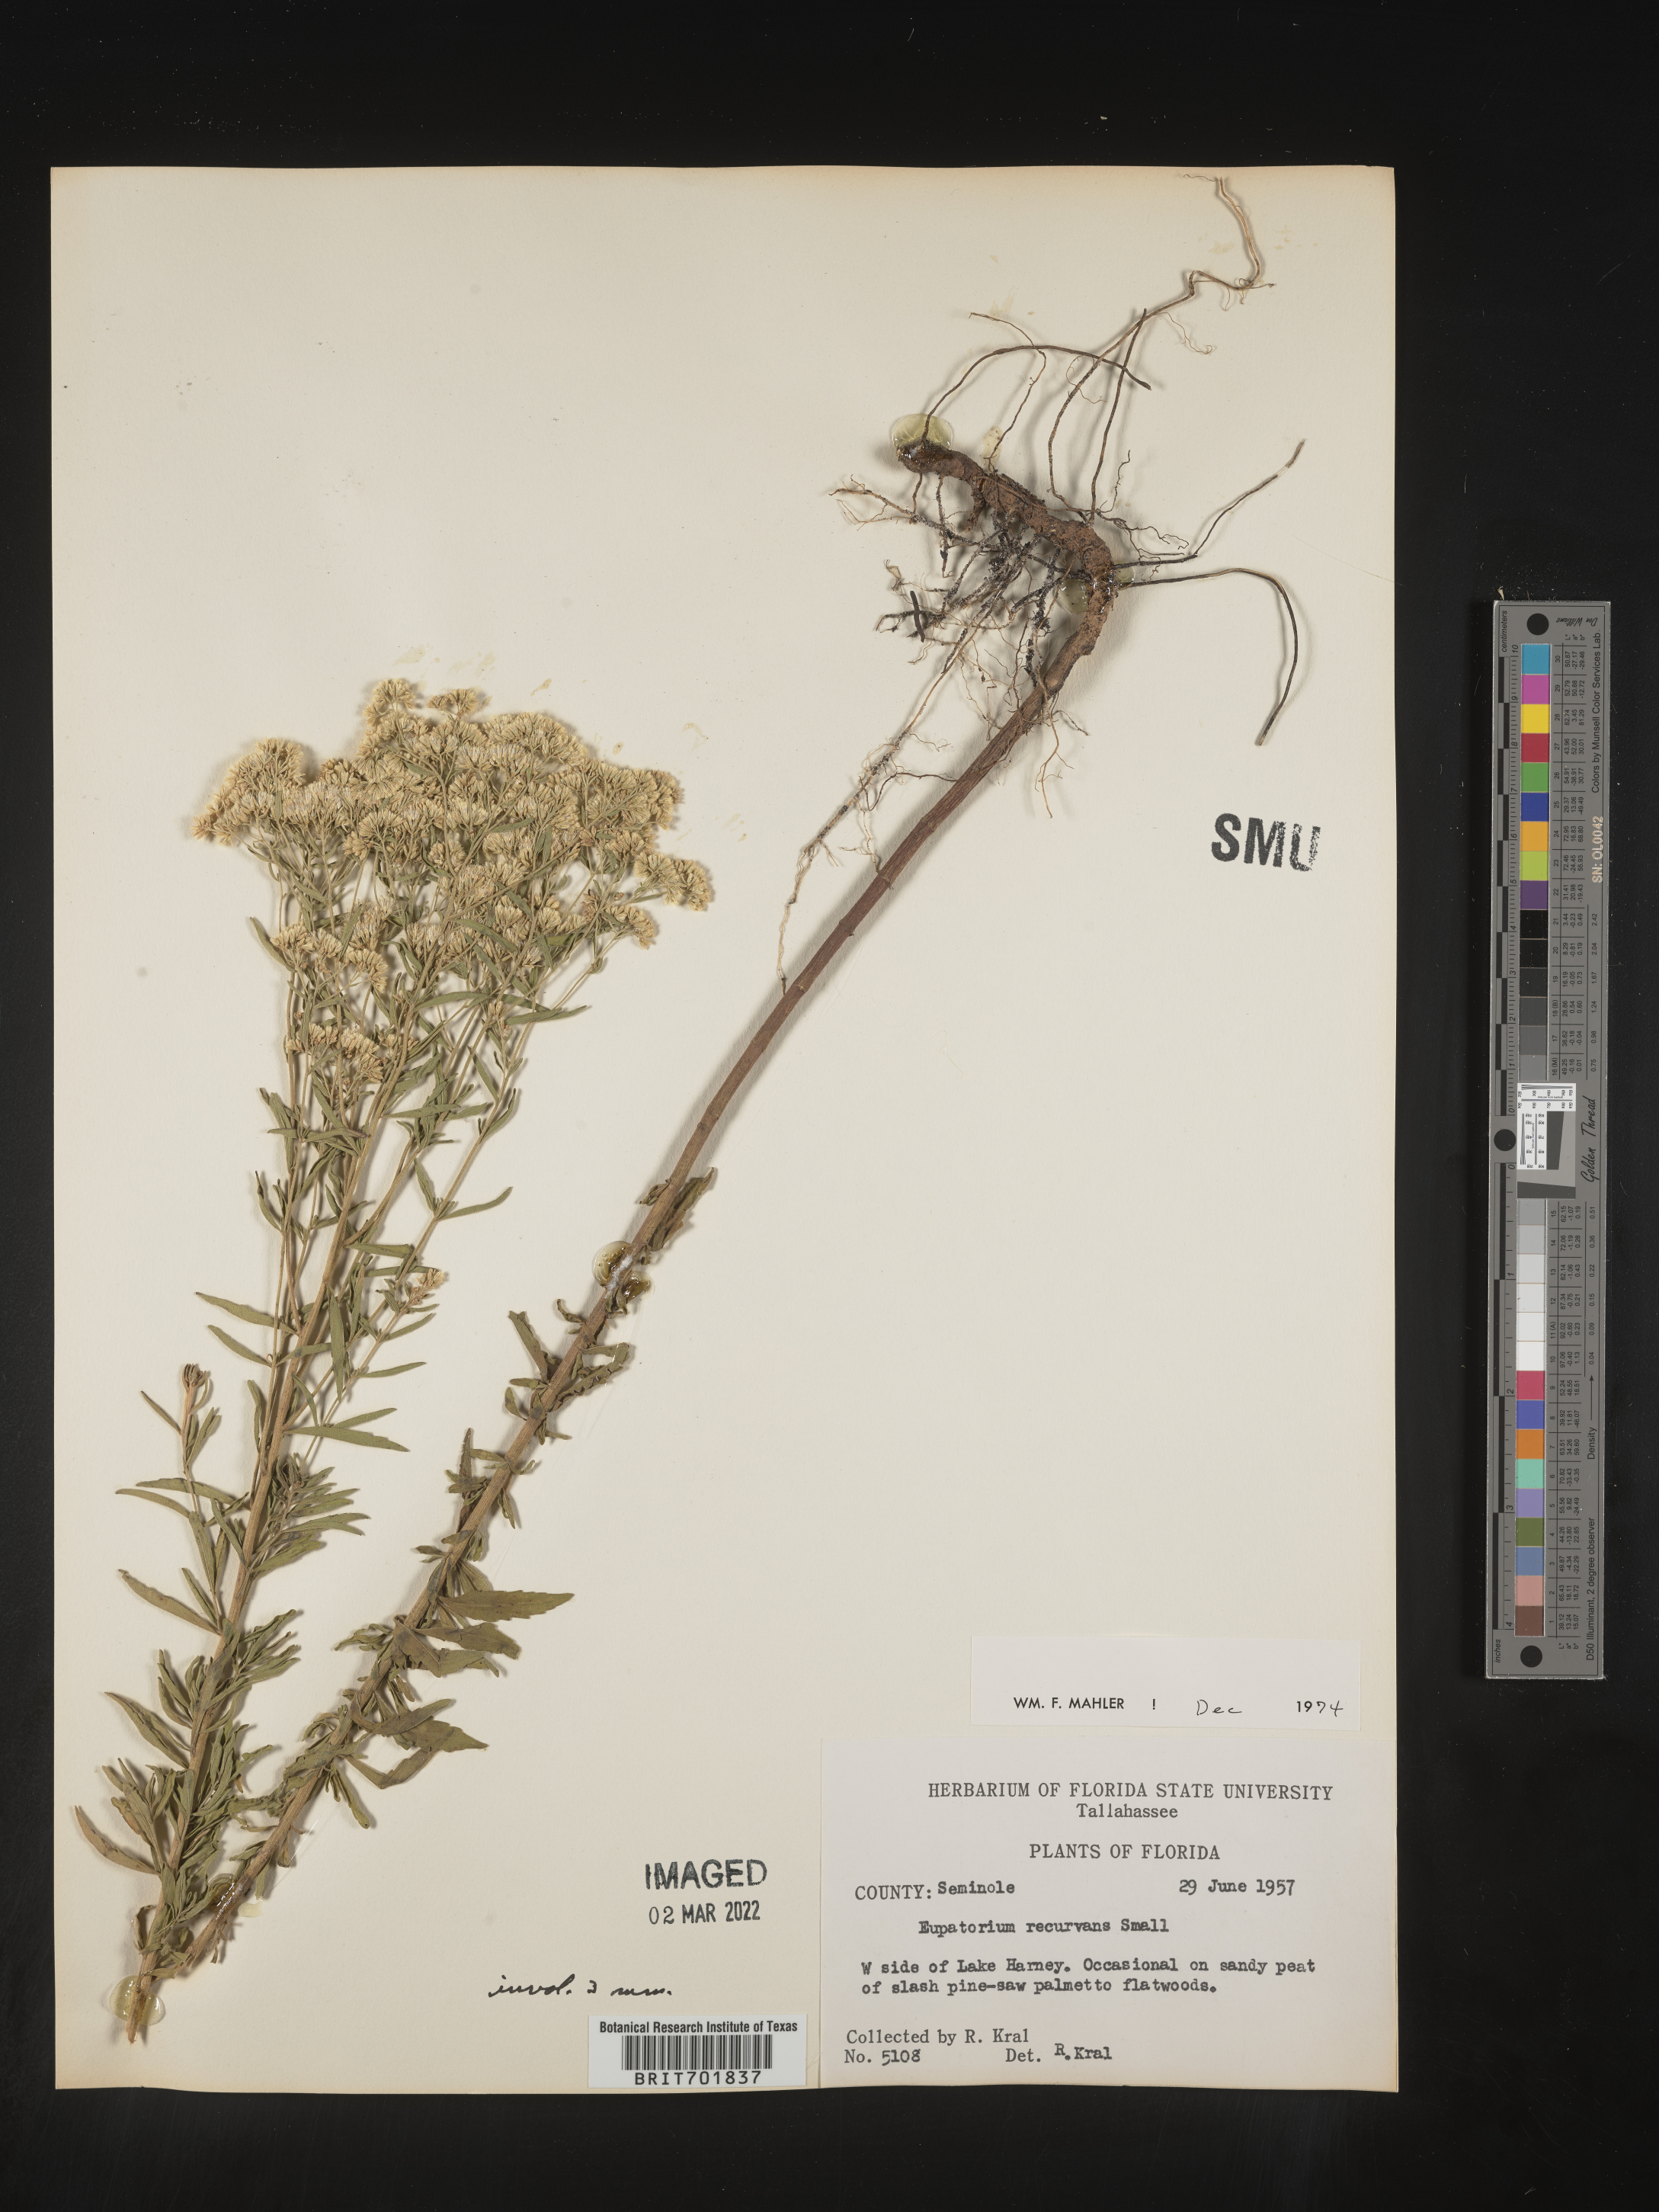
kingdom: Plantae
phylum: Tracheophyta
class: Magnoliopsida
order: Asterales
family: Asteraceae
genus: Eupatorium
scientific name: Eupatorium mohrii
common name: Mohr's thoroughwort
